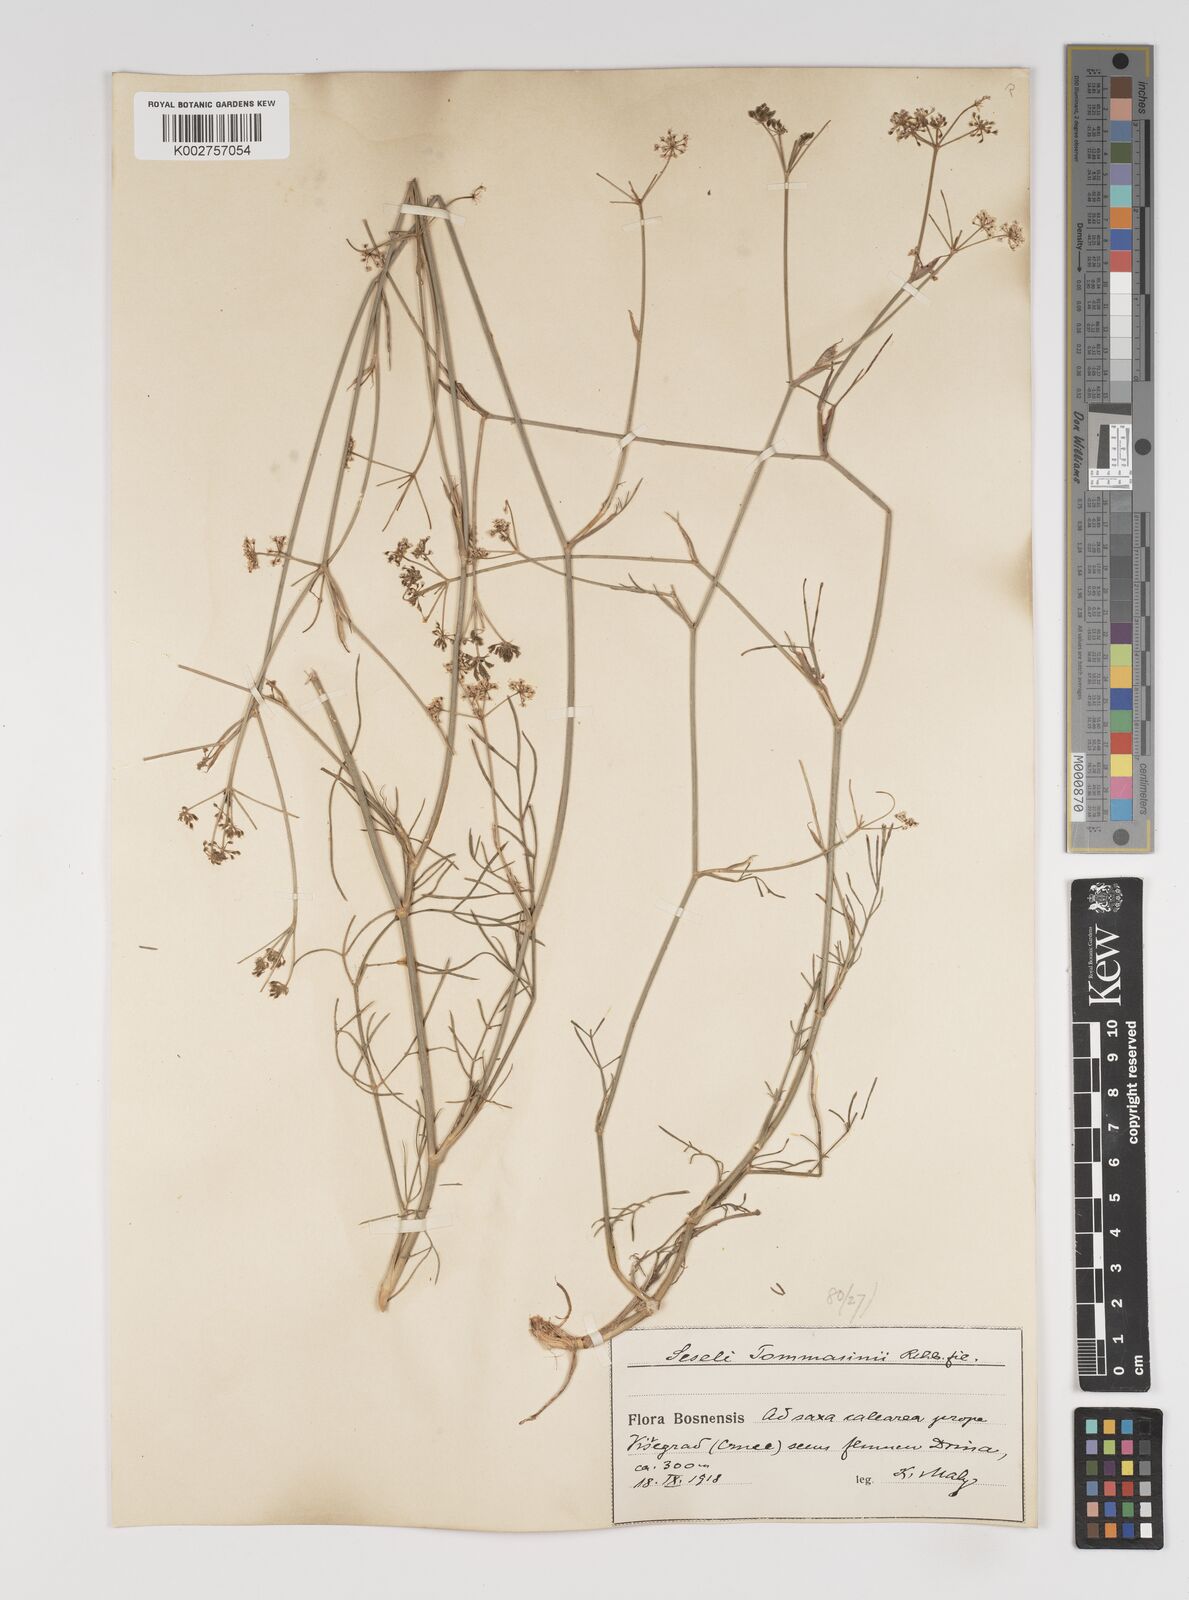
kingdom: Plantae
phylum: Tracheophyta
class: Magnoliopsida
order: Apiales
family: Apiaceae
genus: Seseli
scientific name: Seseli montanum
